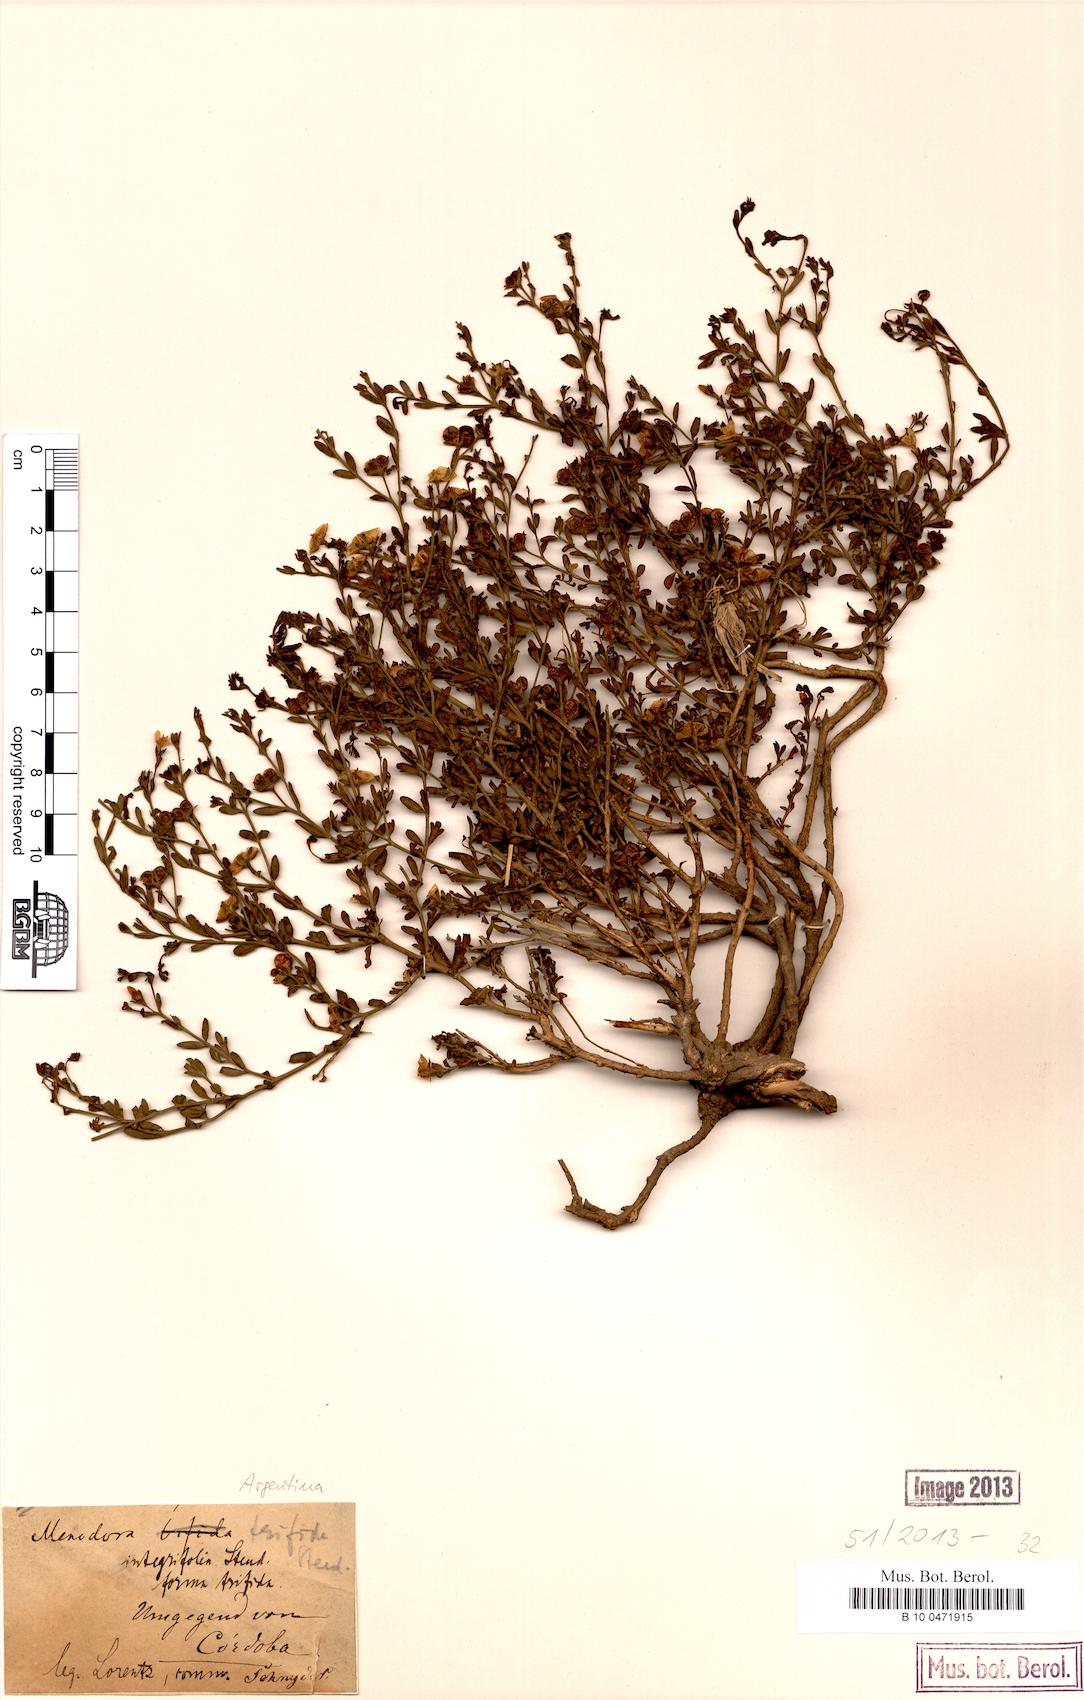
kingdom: Plantae
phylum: Tracheophyta
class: Magnoliopsida
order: Lamiales
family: Oleaceae
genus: Menodora
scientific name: Menodora integrifolia
